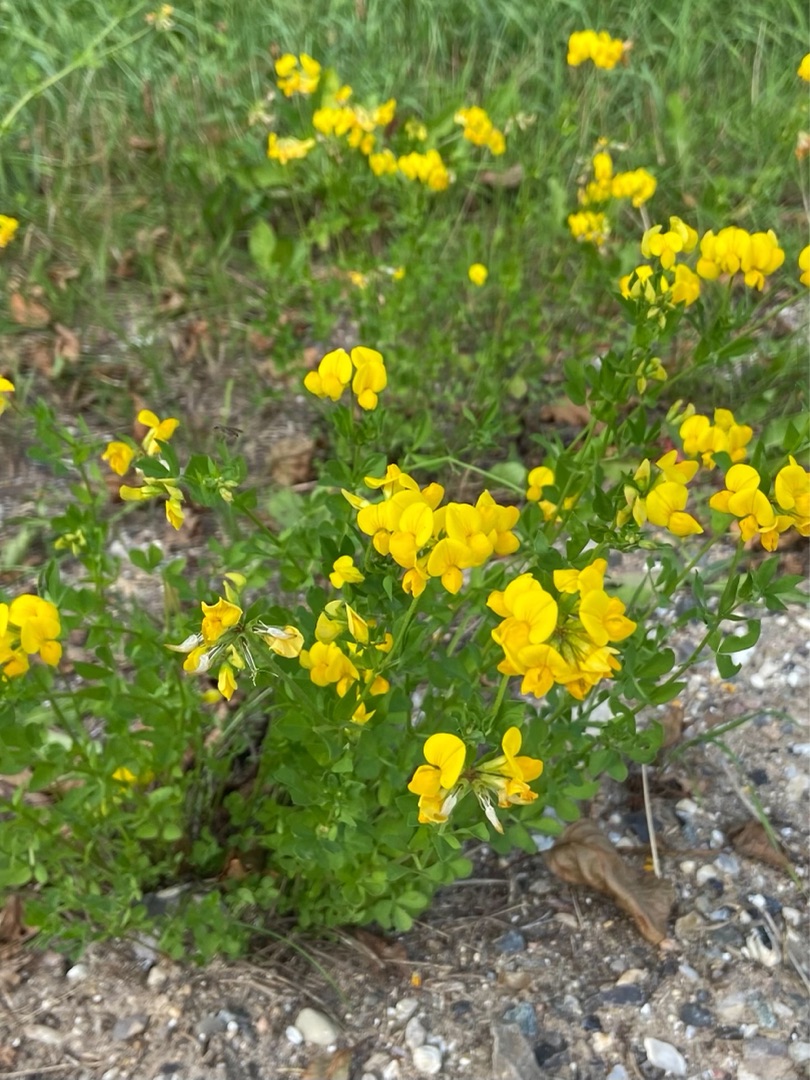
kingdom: Plantae
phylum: Tracheophyta
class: Magnoliopsida
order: Fabales
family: Fabaceae
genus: Lotus
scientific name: Lotus corniculatus
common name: Foder-kællingetand
